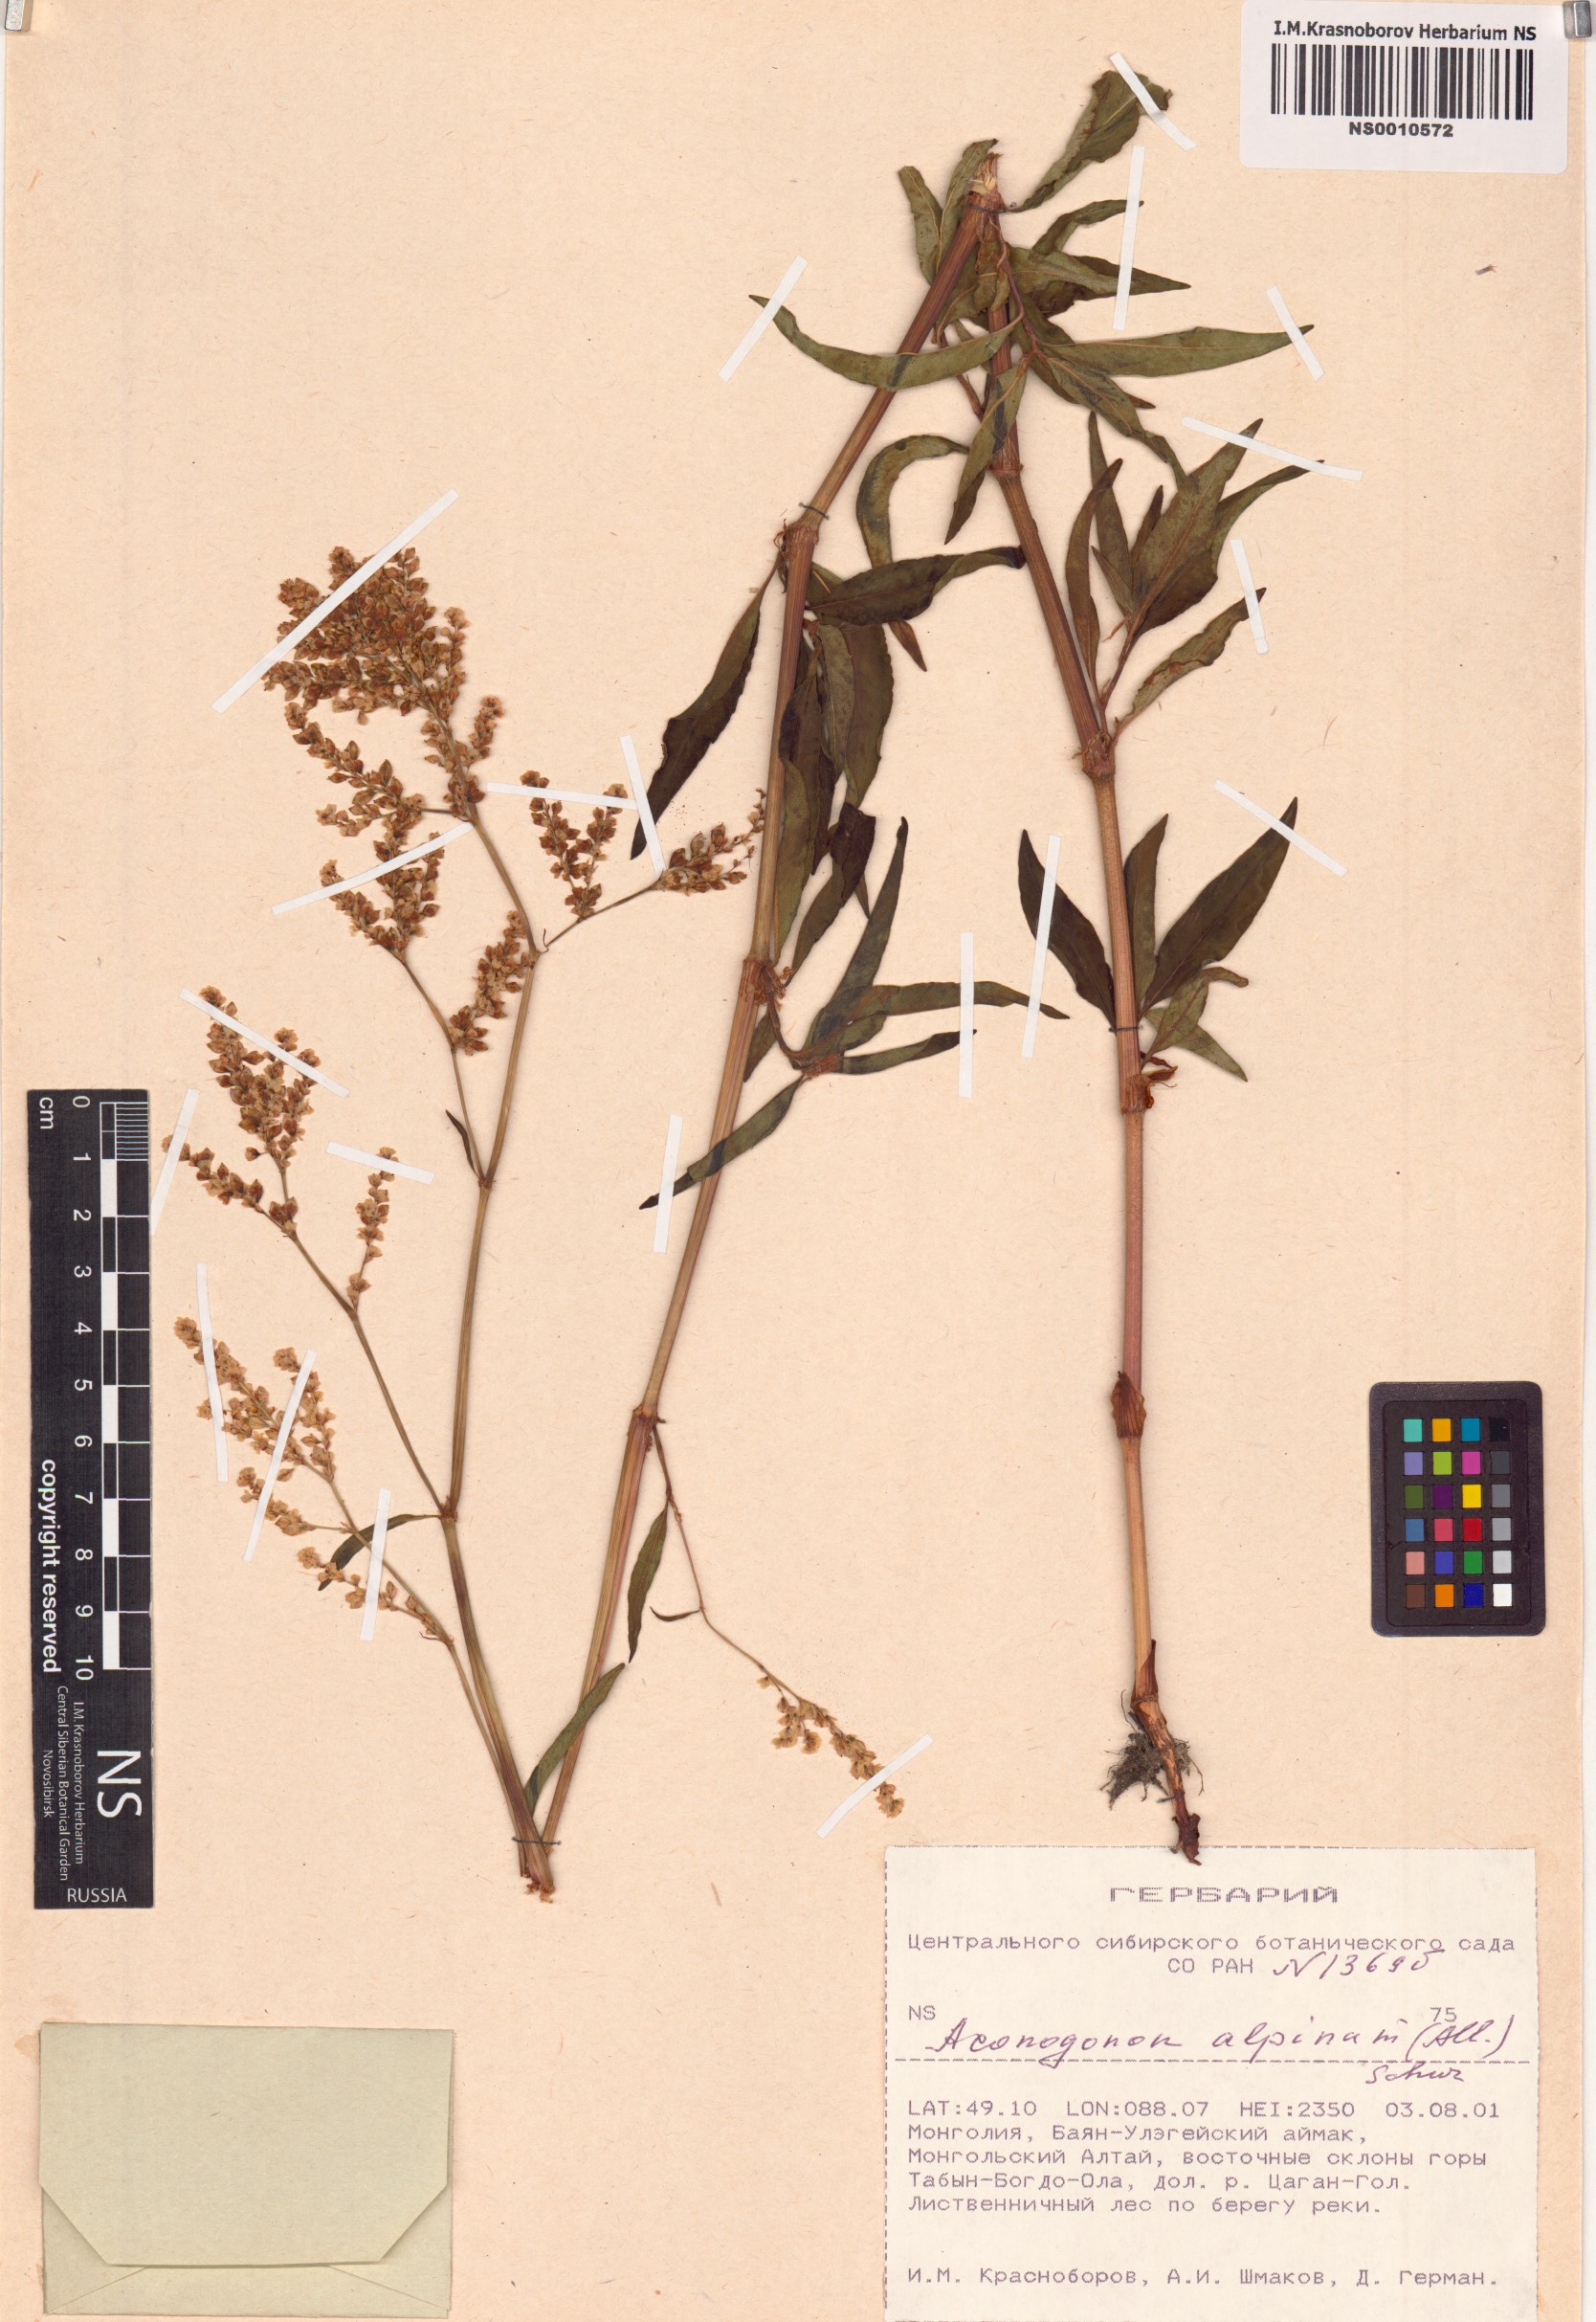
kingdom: Plantae
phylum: Tracheophyta
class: Magnoliopsida
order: Caryophyllales
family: Polygonaceae
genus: Koenigia
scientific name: Koenigia alpina
